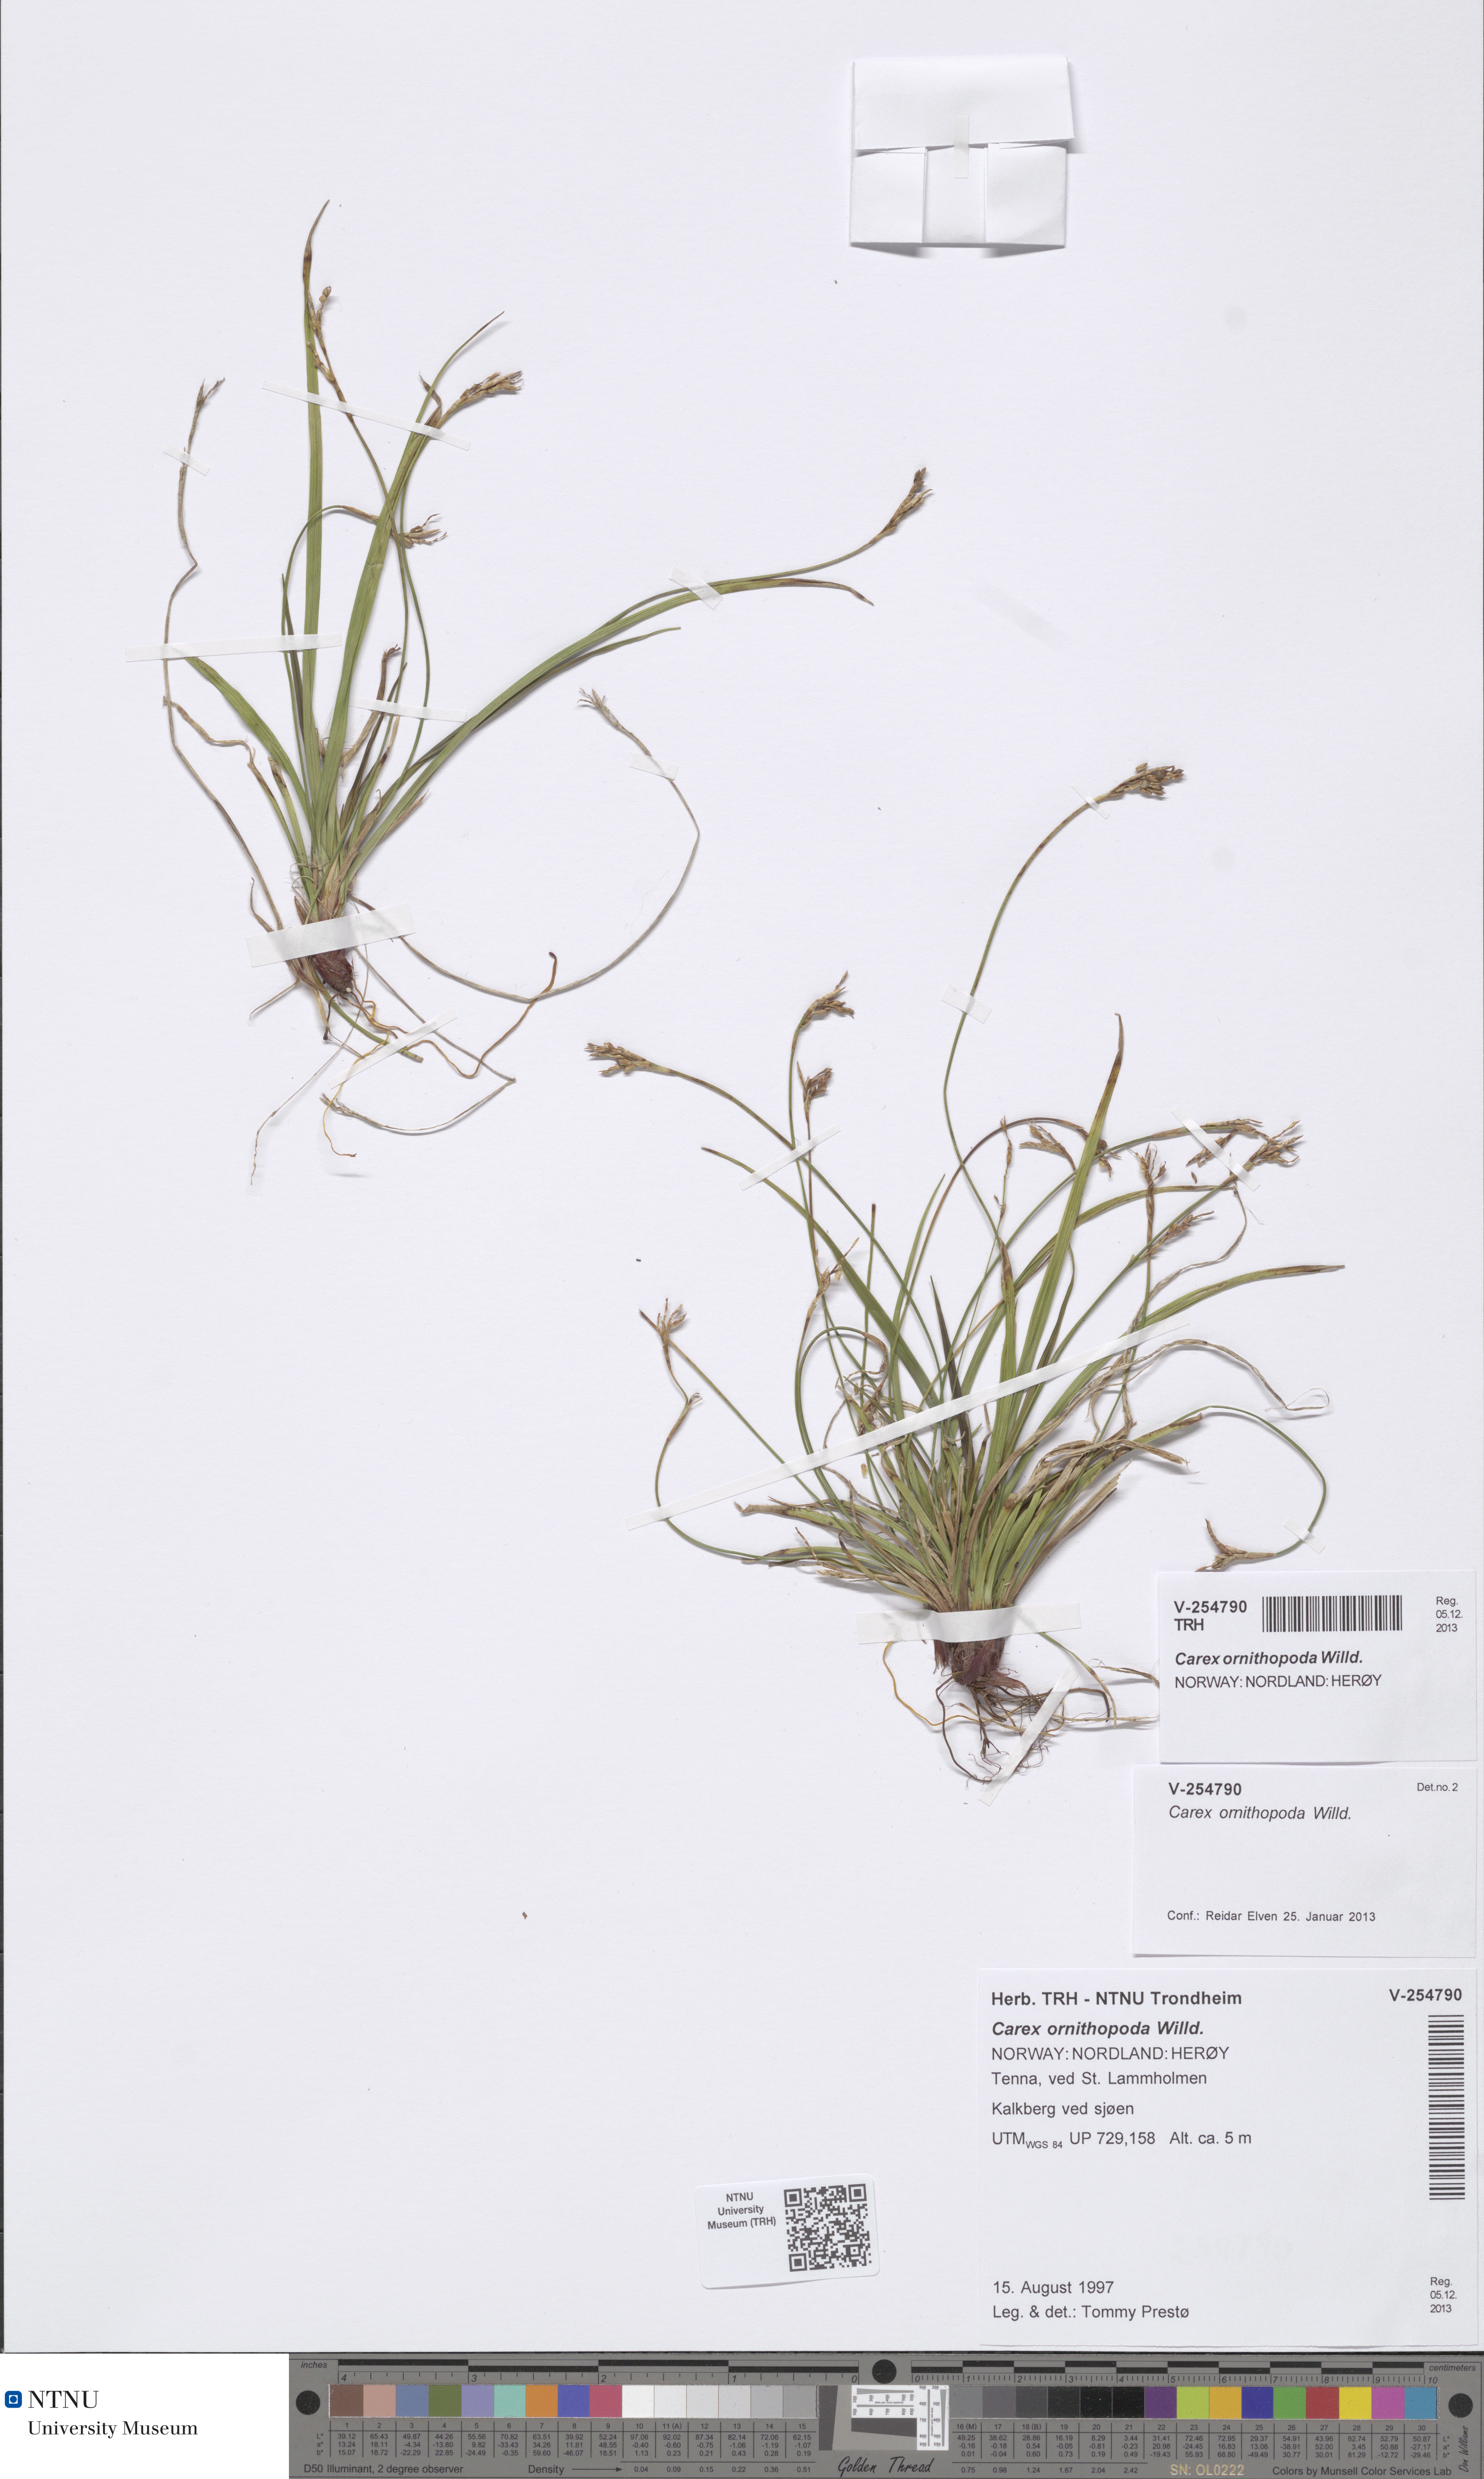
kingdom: Plantae
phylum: Tracheophyta
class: Liliopsida
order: Poales
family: Cyperaceae
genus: Carex
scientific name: Carex ornithopoda
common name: Bird's-foot sedge
